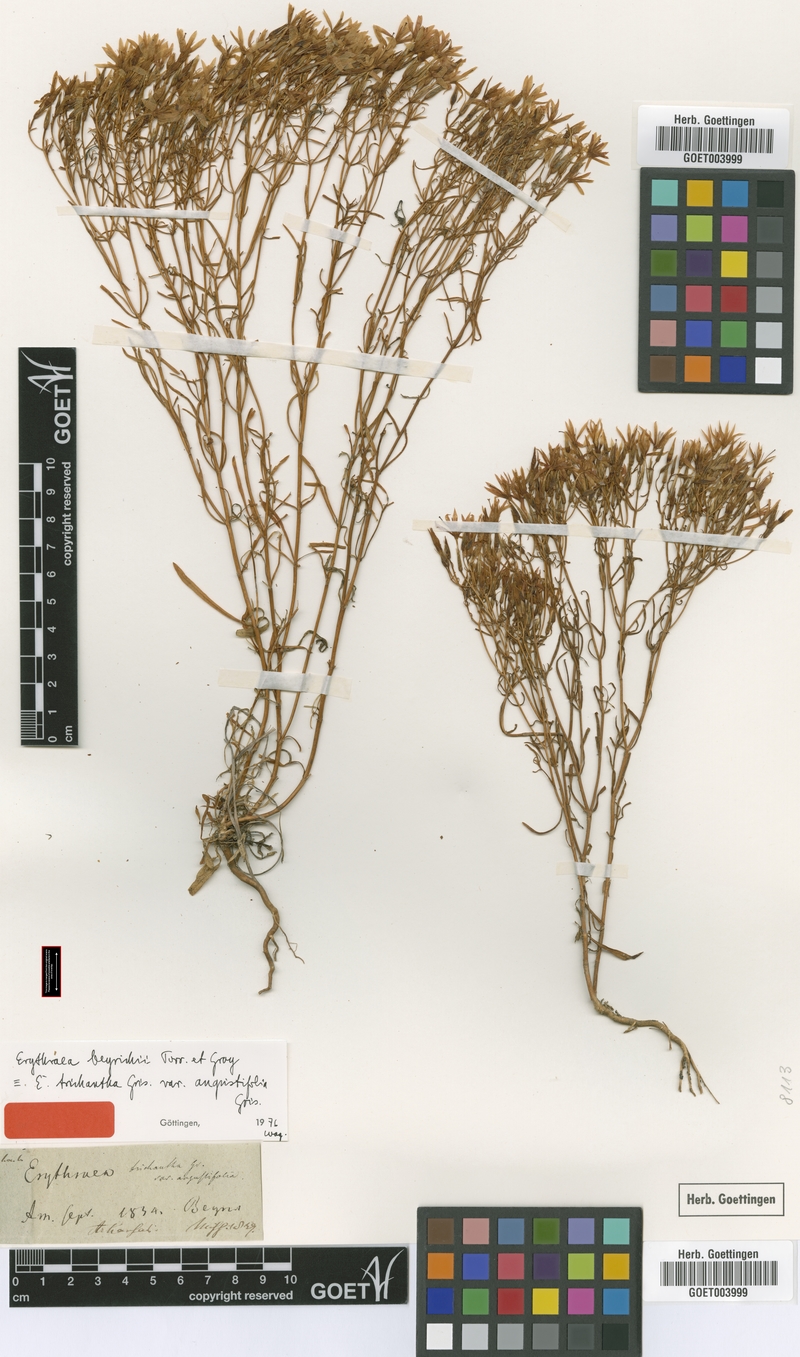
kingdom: Plantae
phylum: Tracheophyta
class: Magnoliopsida
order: Gentianales
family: Gentianaceae
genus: Zeltnera
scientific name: Zeltnera beyrichii
